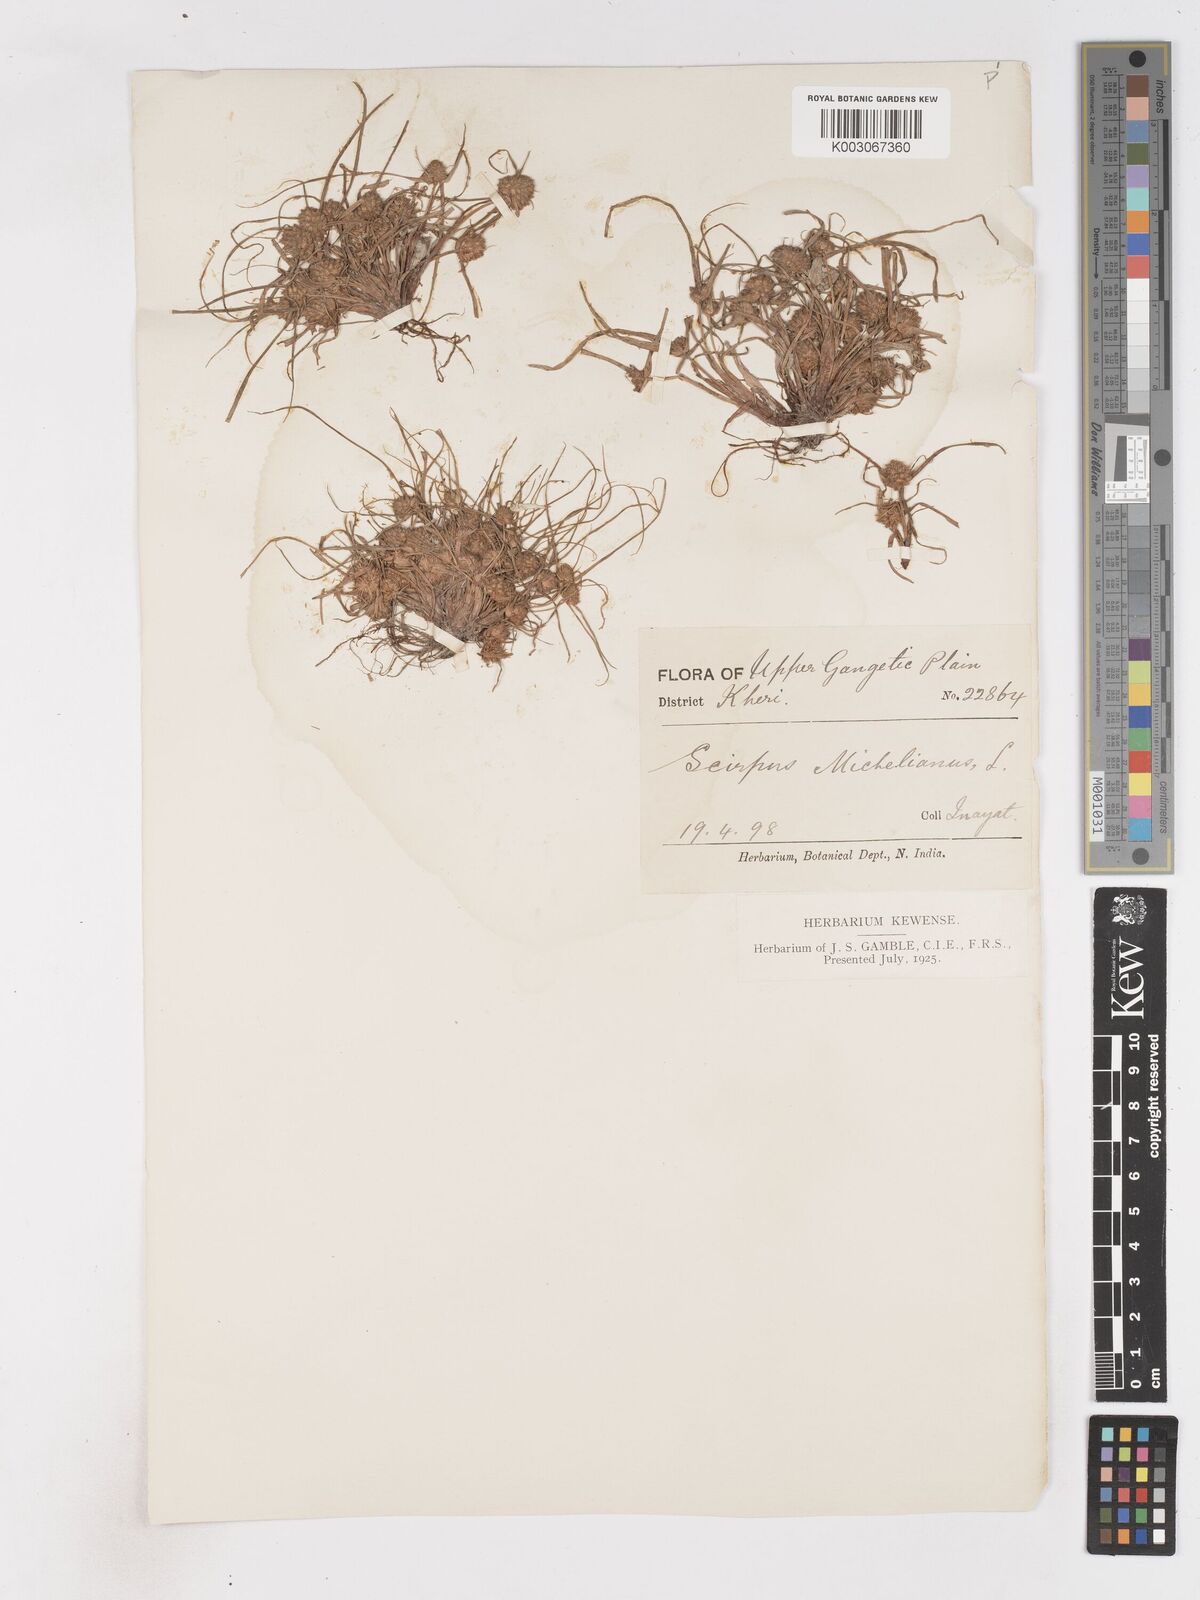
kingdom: Plantae
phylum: Tracheophyta
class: Liliopsida
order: Poales
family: Cyperaceae
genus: Cyperus
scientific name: Cyperus michelianus
